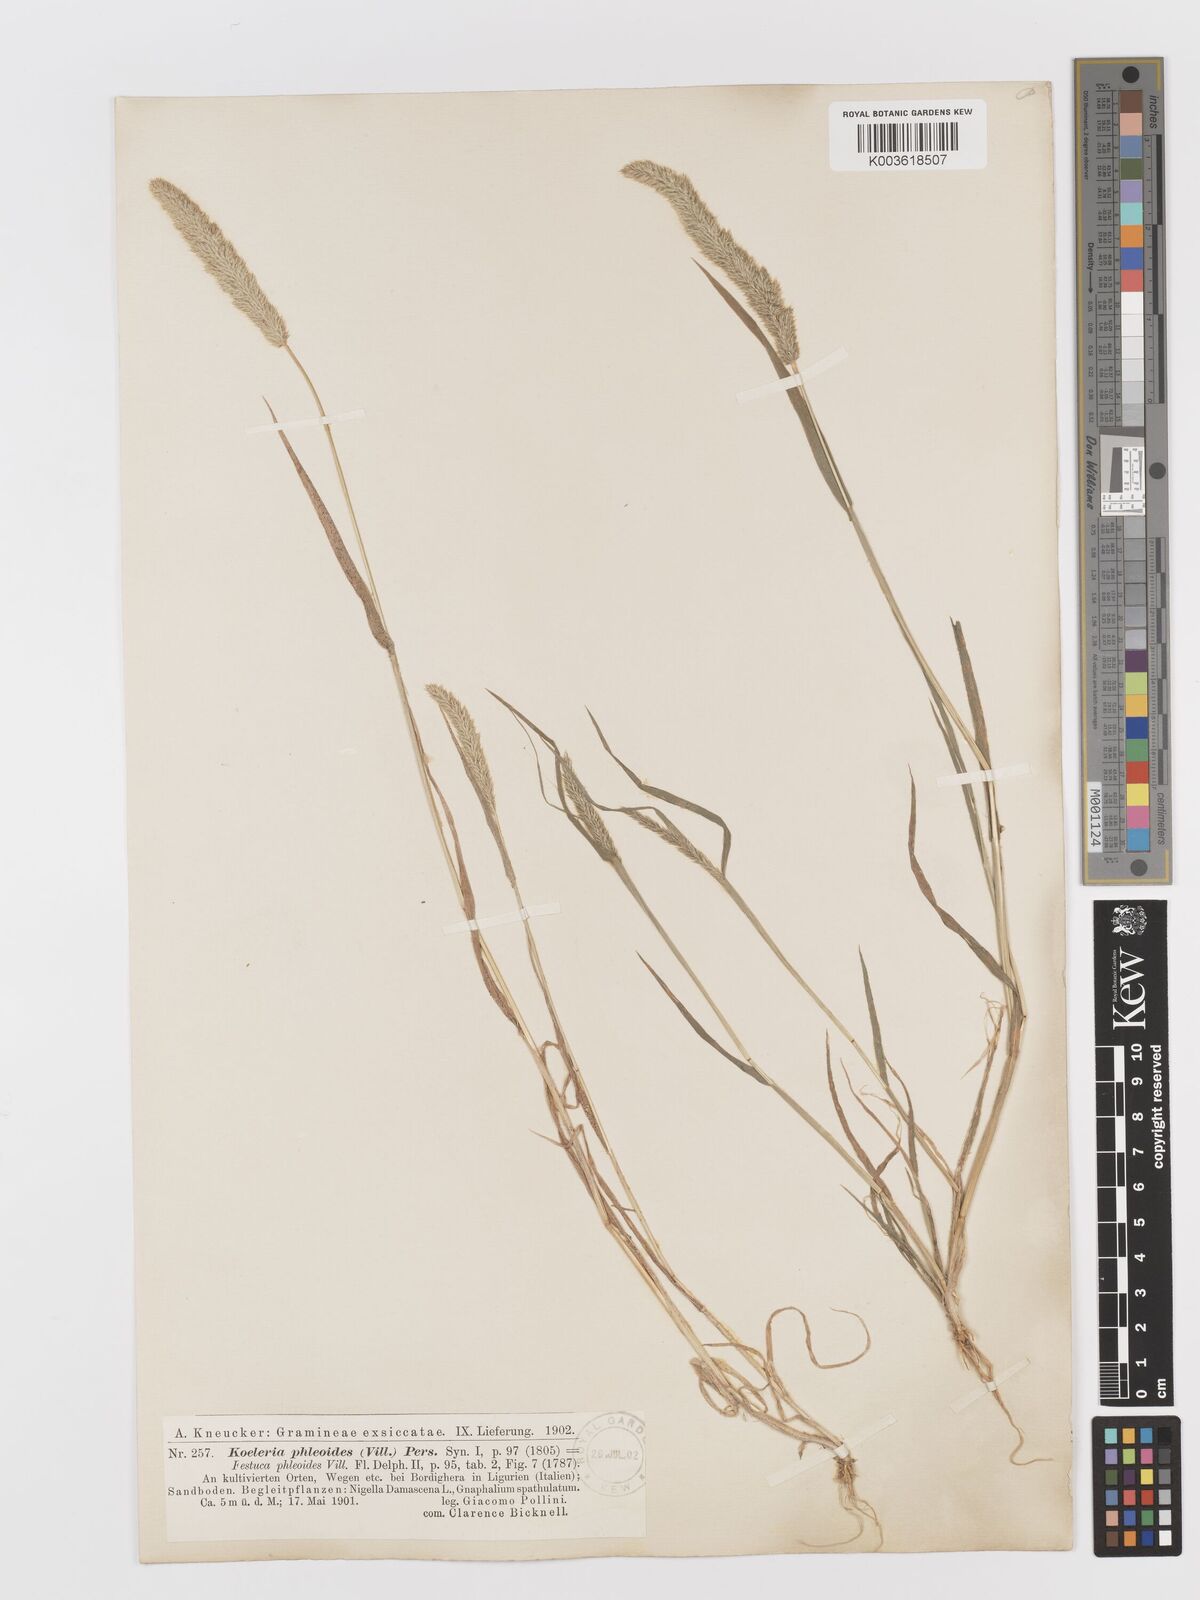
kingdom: Plantae
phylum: Tracheophyta
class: Liliopsida
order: Poales
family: Poaceae
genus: Rostraria
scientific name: Rostraria cristata
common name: Mediterranean hair-grass
